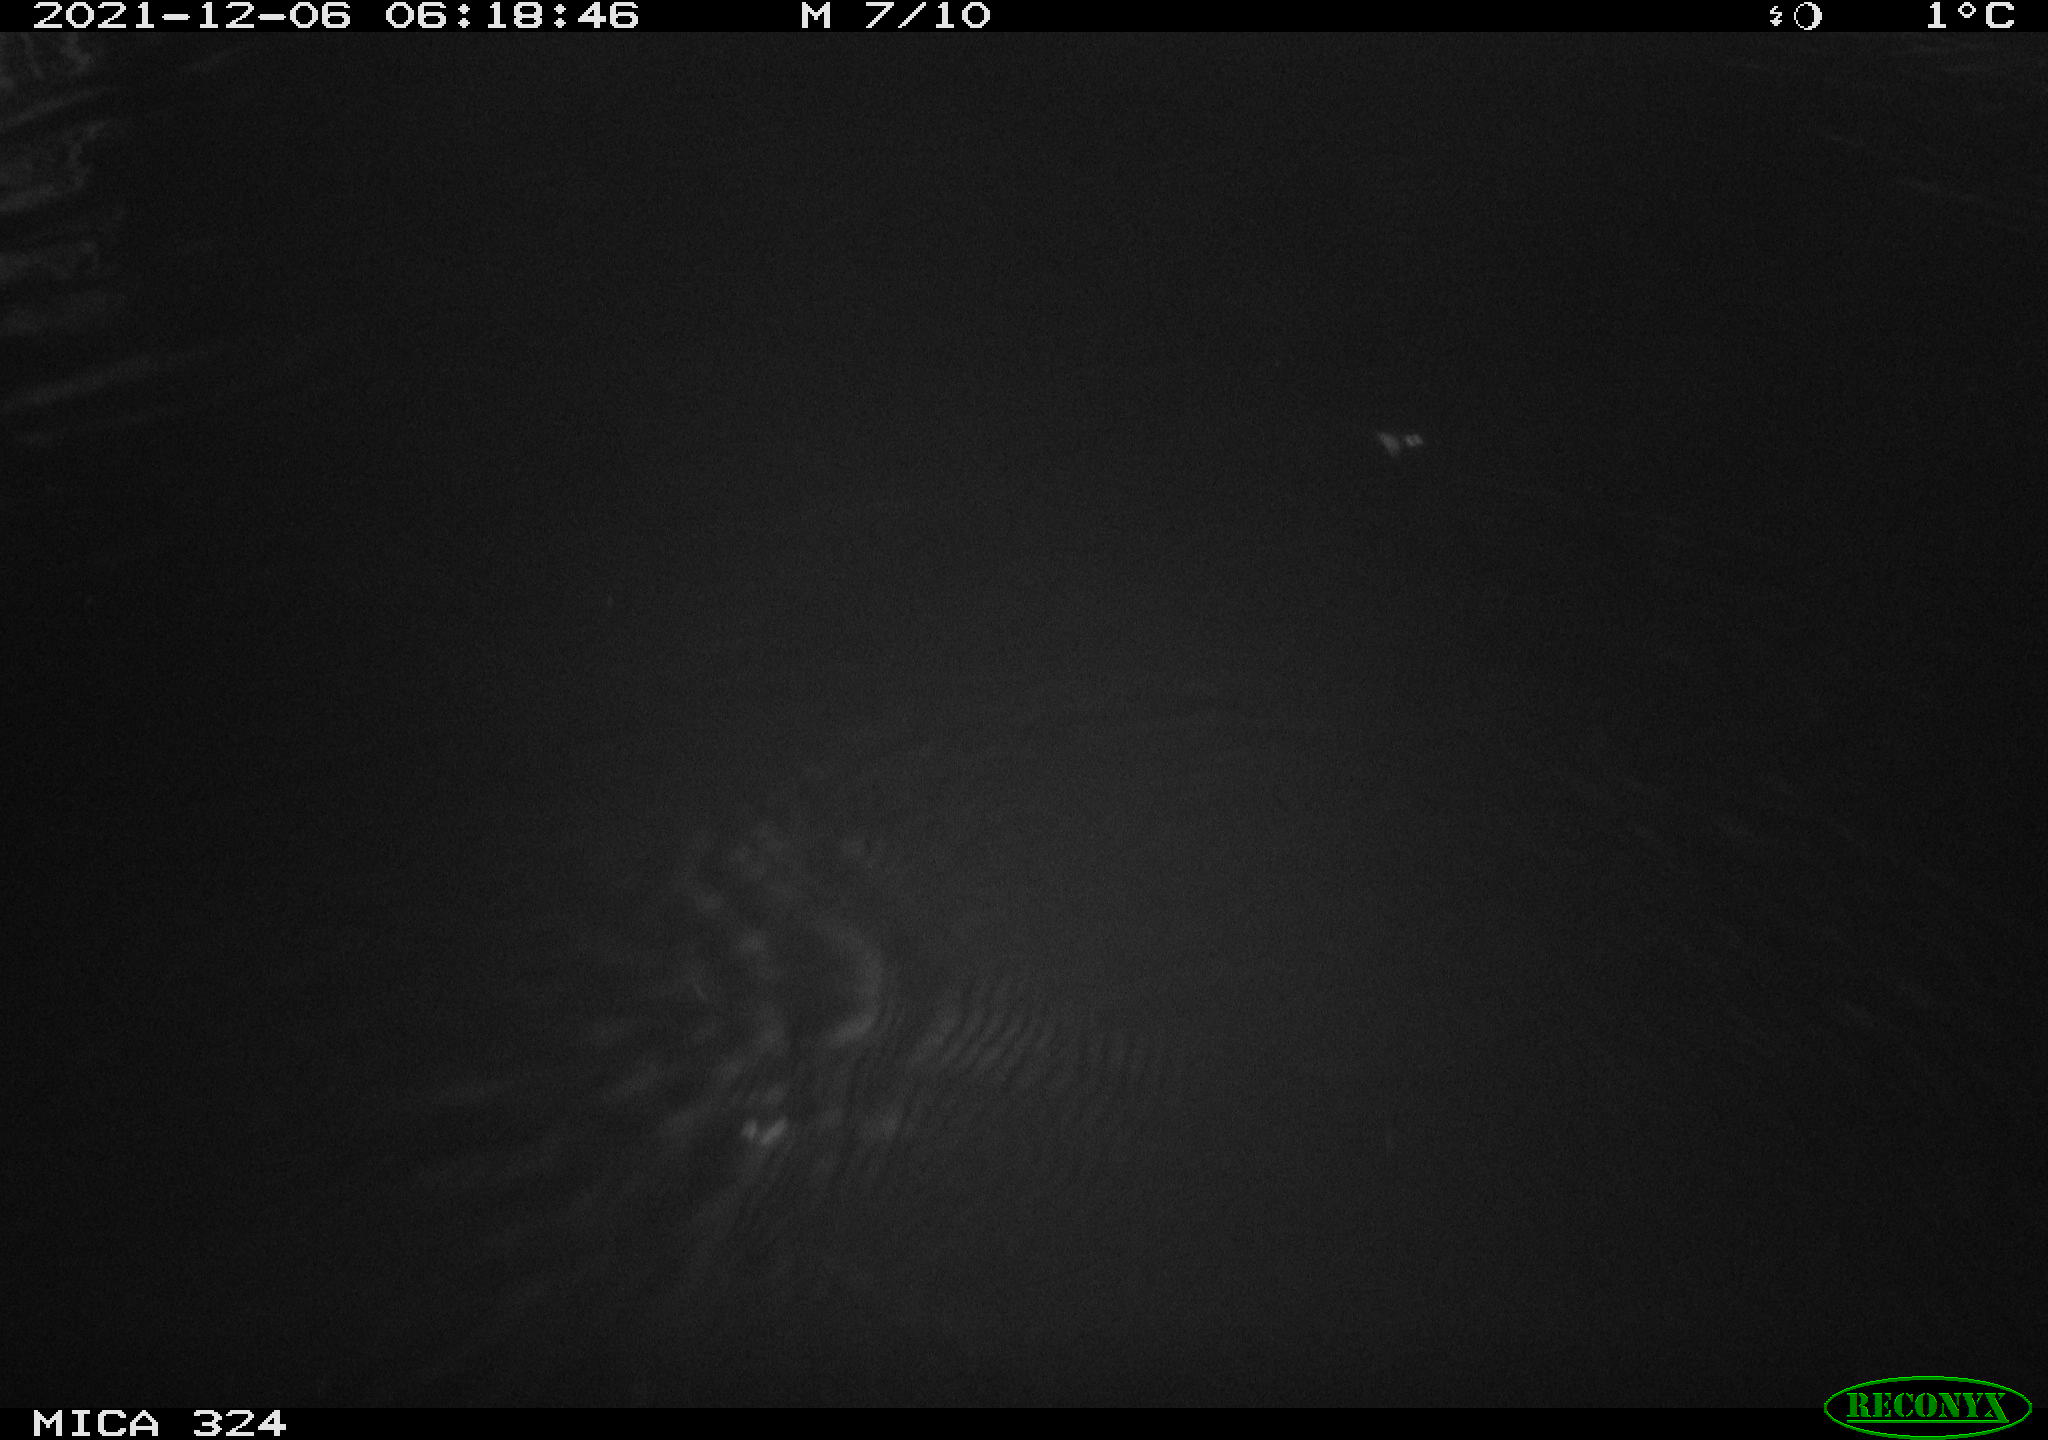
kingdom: Animalia
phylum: Chordata
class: Mammalia
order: Rodentia
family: Cricetidae
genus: Ondatra
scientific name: Ondatra zibethicus
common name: Muskrat
